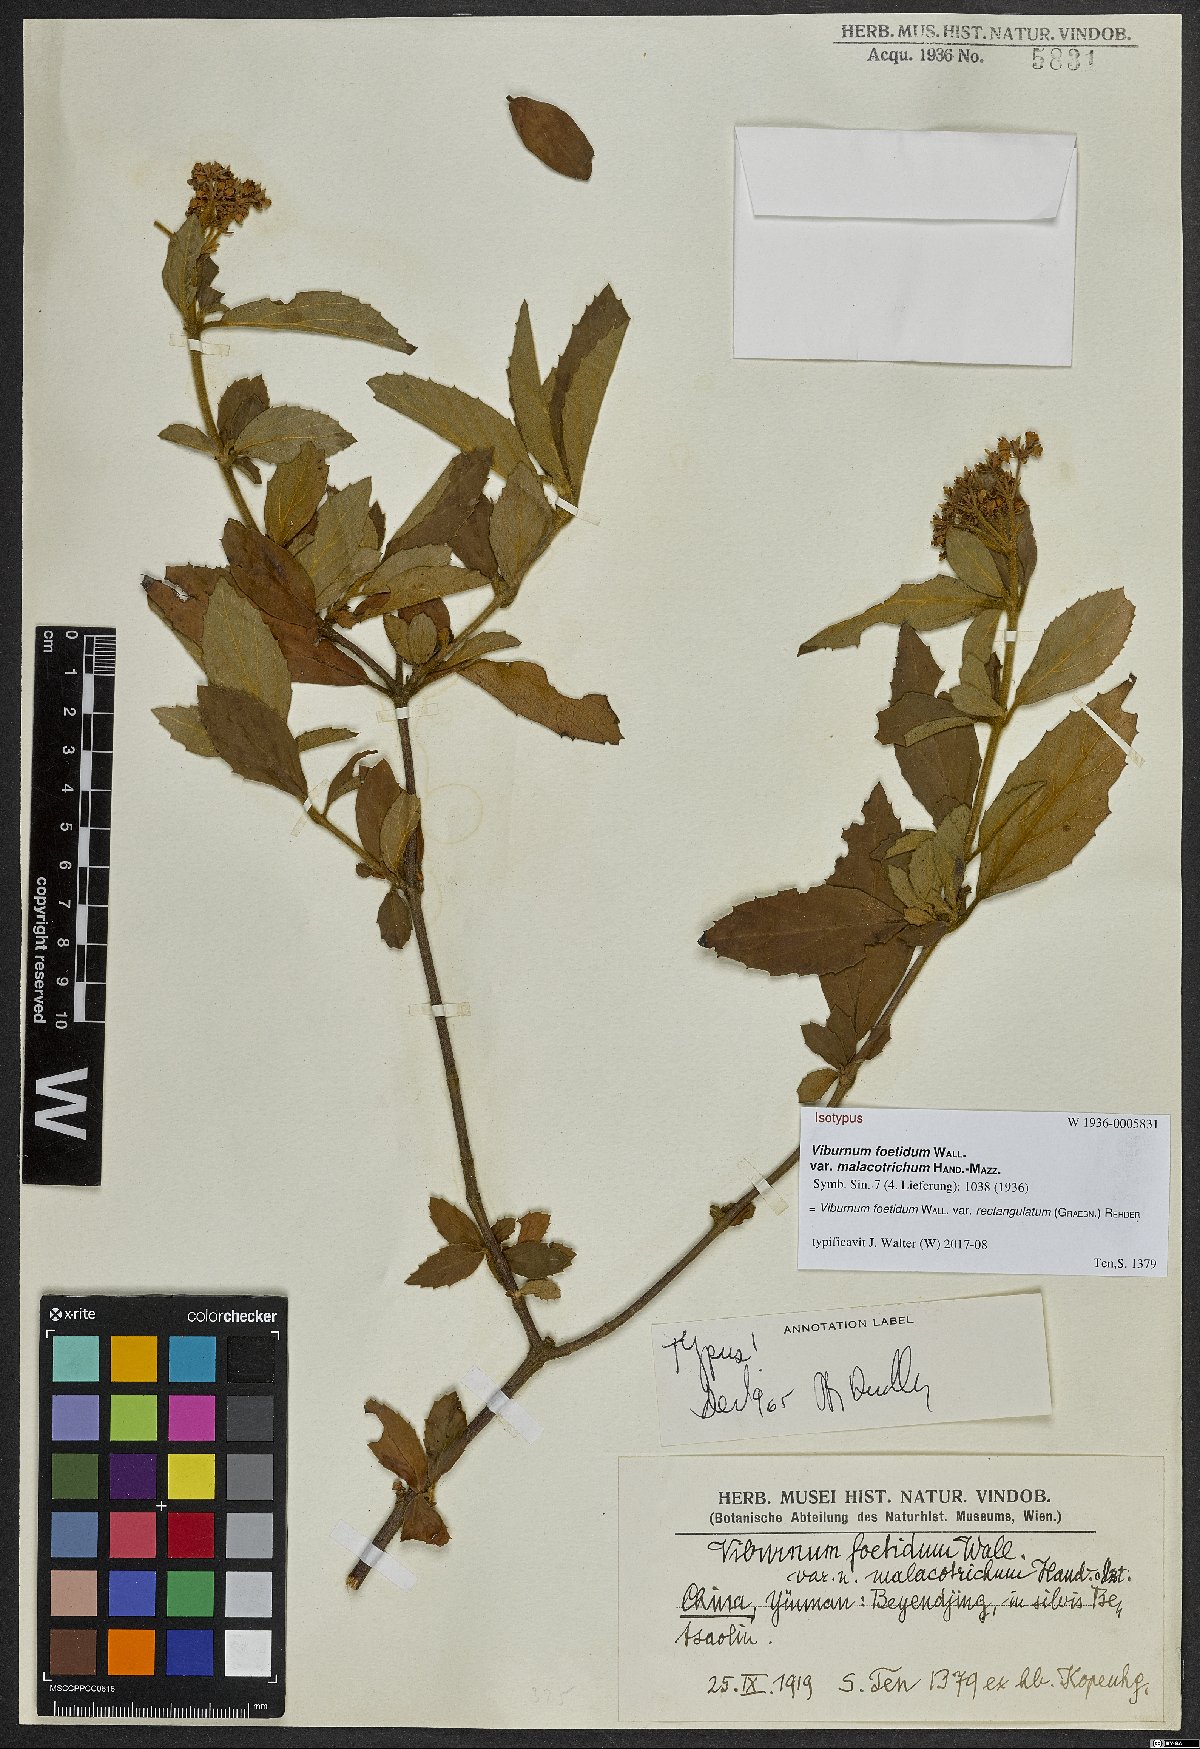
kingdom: Plantae
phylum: Tracheophyta
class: Magnoliopsida
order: Dipsacales
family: Viburnaceae
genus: Viburnum
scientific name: Viburnum foetidum
